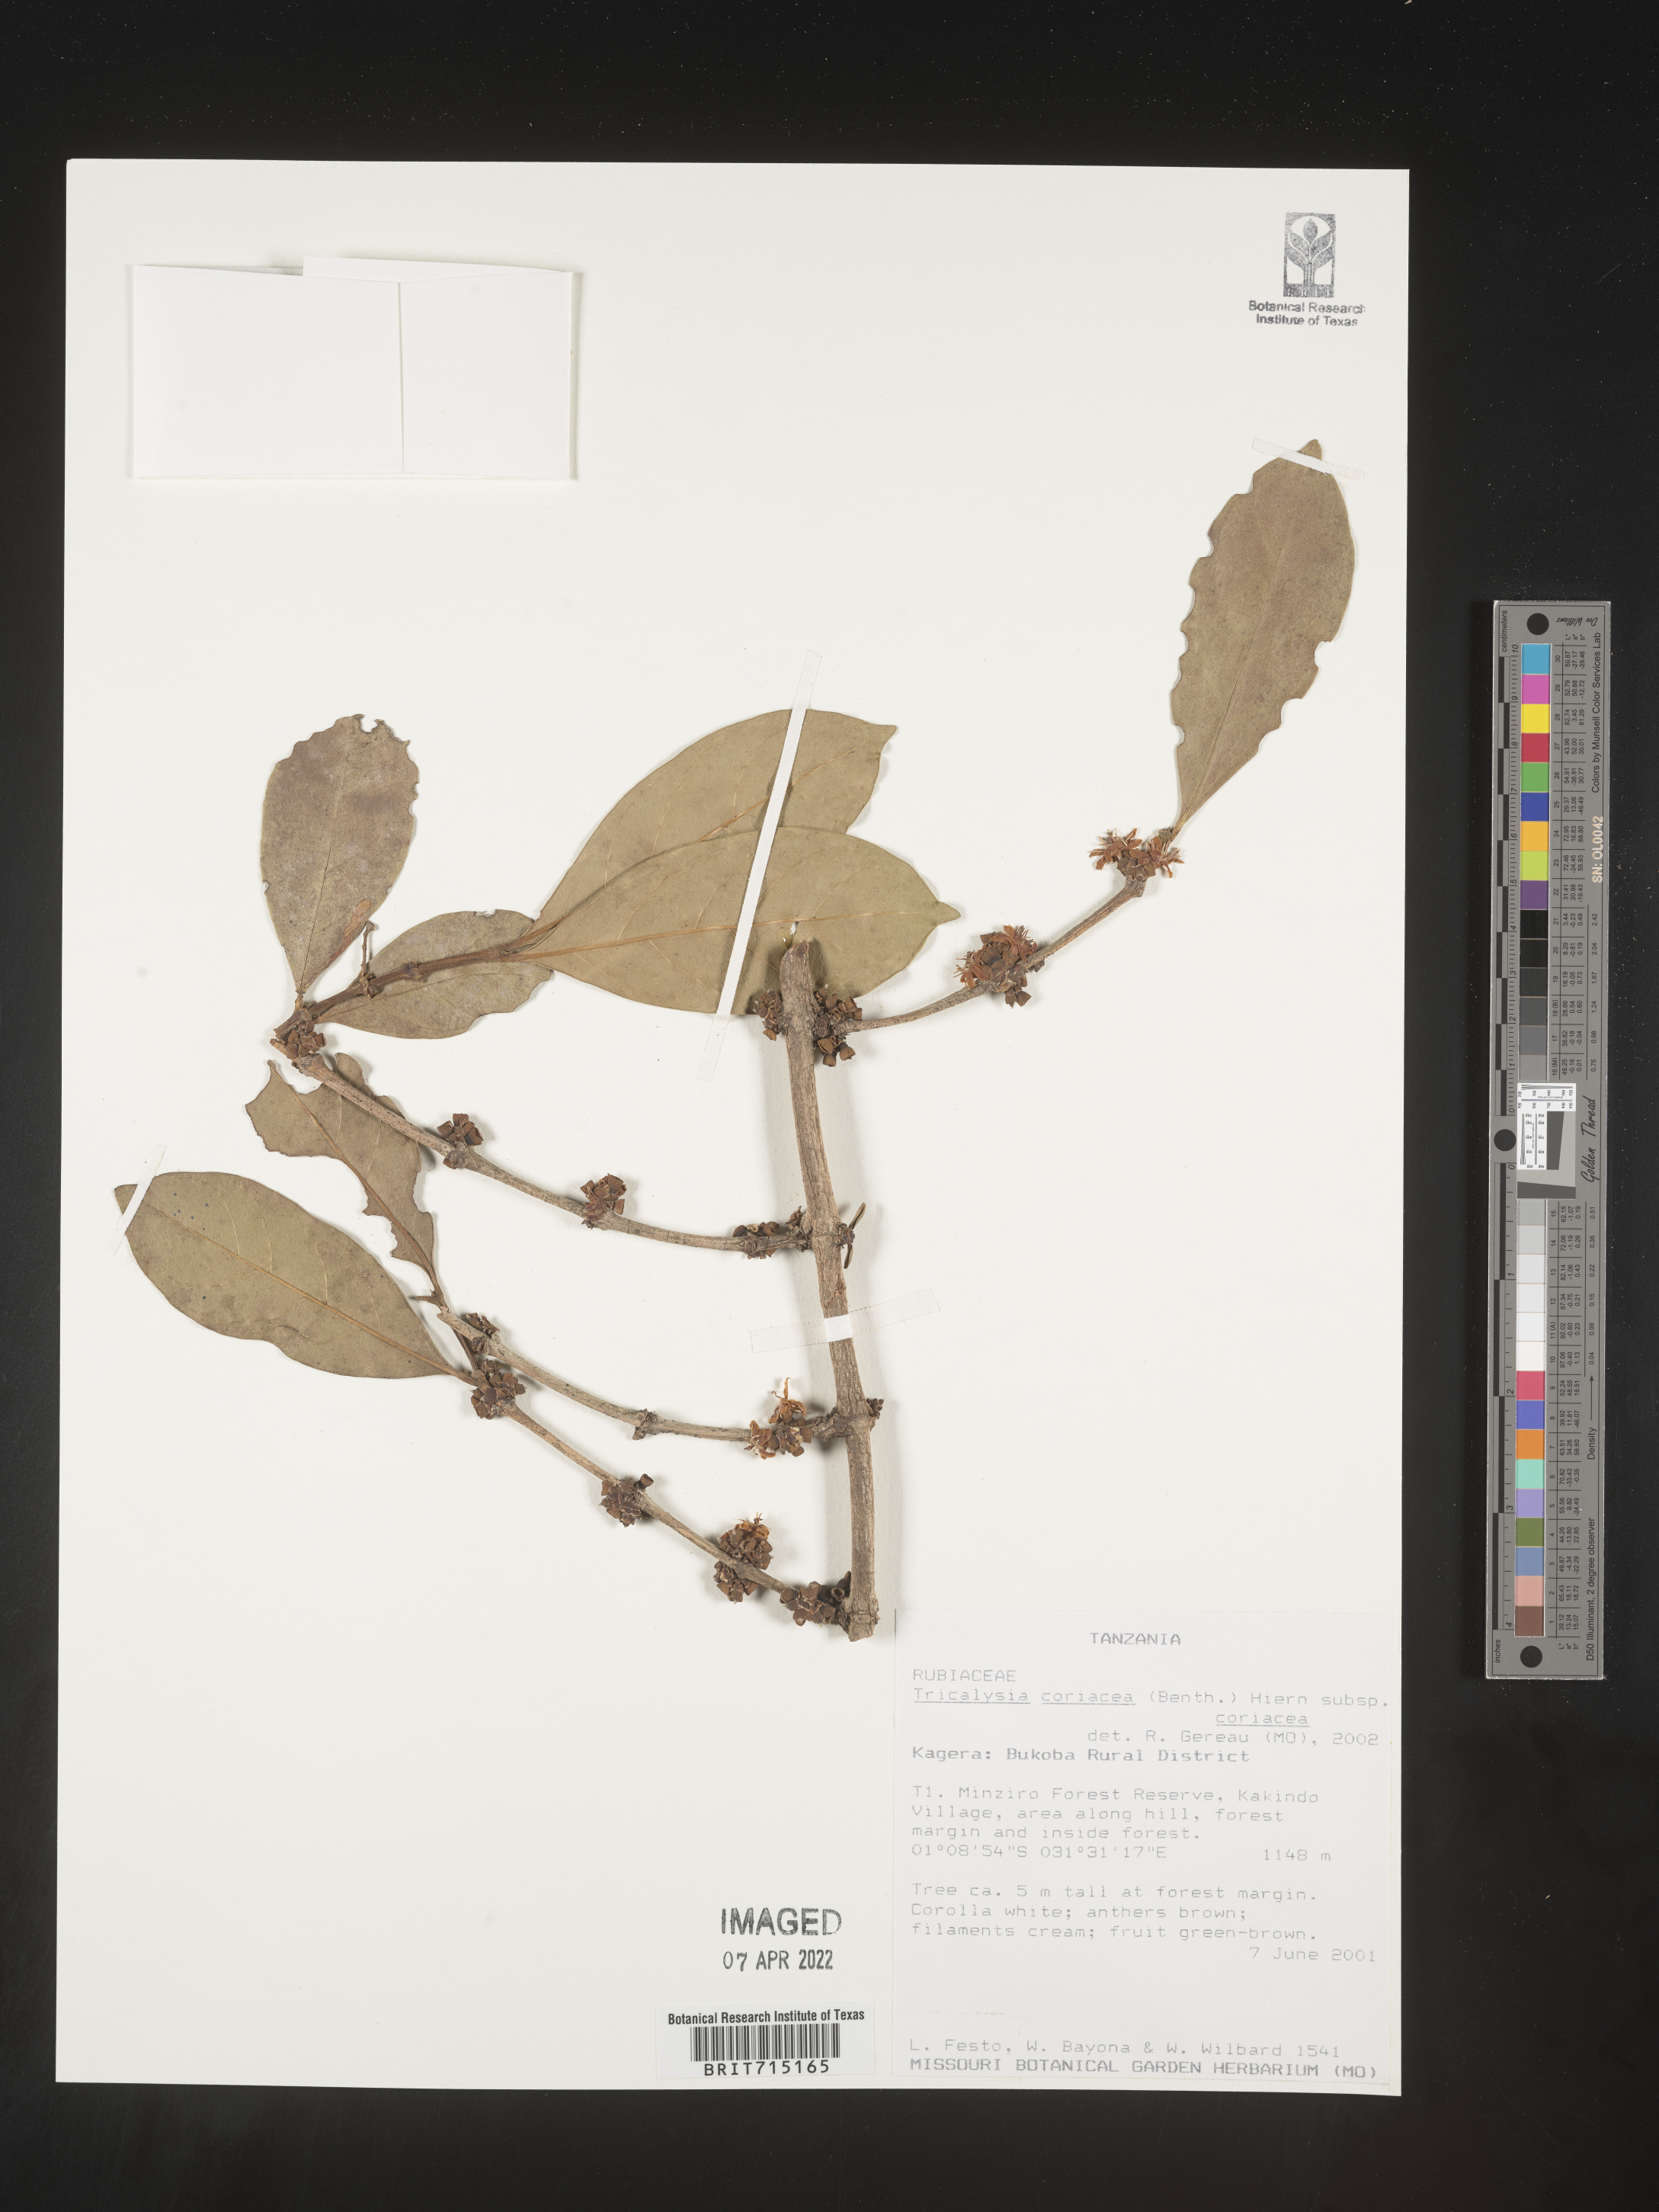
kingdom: Plantae
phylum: Tracheophyta
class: Magnoliopsida
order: Gentianales
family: Rubiaceae
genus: Tricalysia
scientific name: Tricalysia
